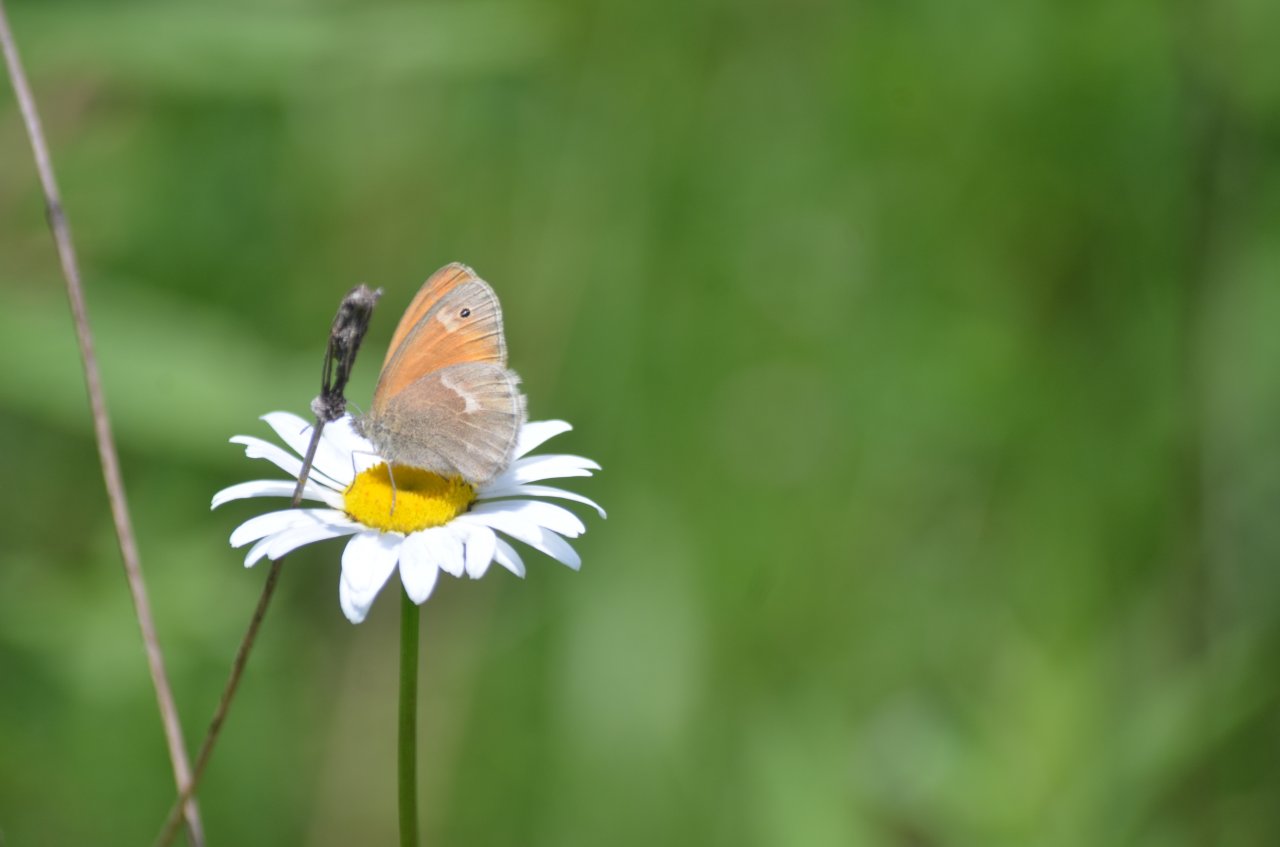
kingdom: Animalia
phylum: Arthropoda
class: Insecta
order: Lepidoptera
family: Nymphalidae
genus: Coenonympha
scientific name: Coenonympha tullia
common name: Large Heath
